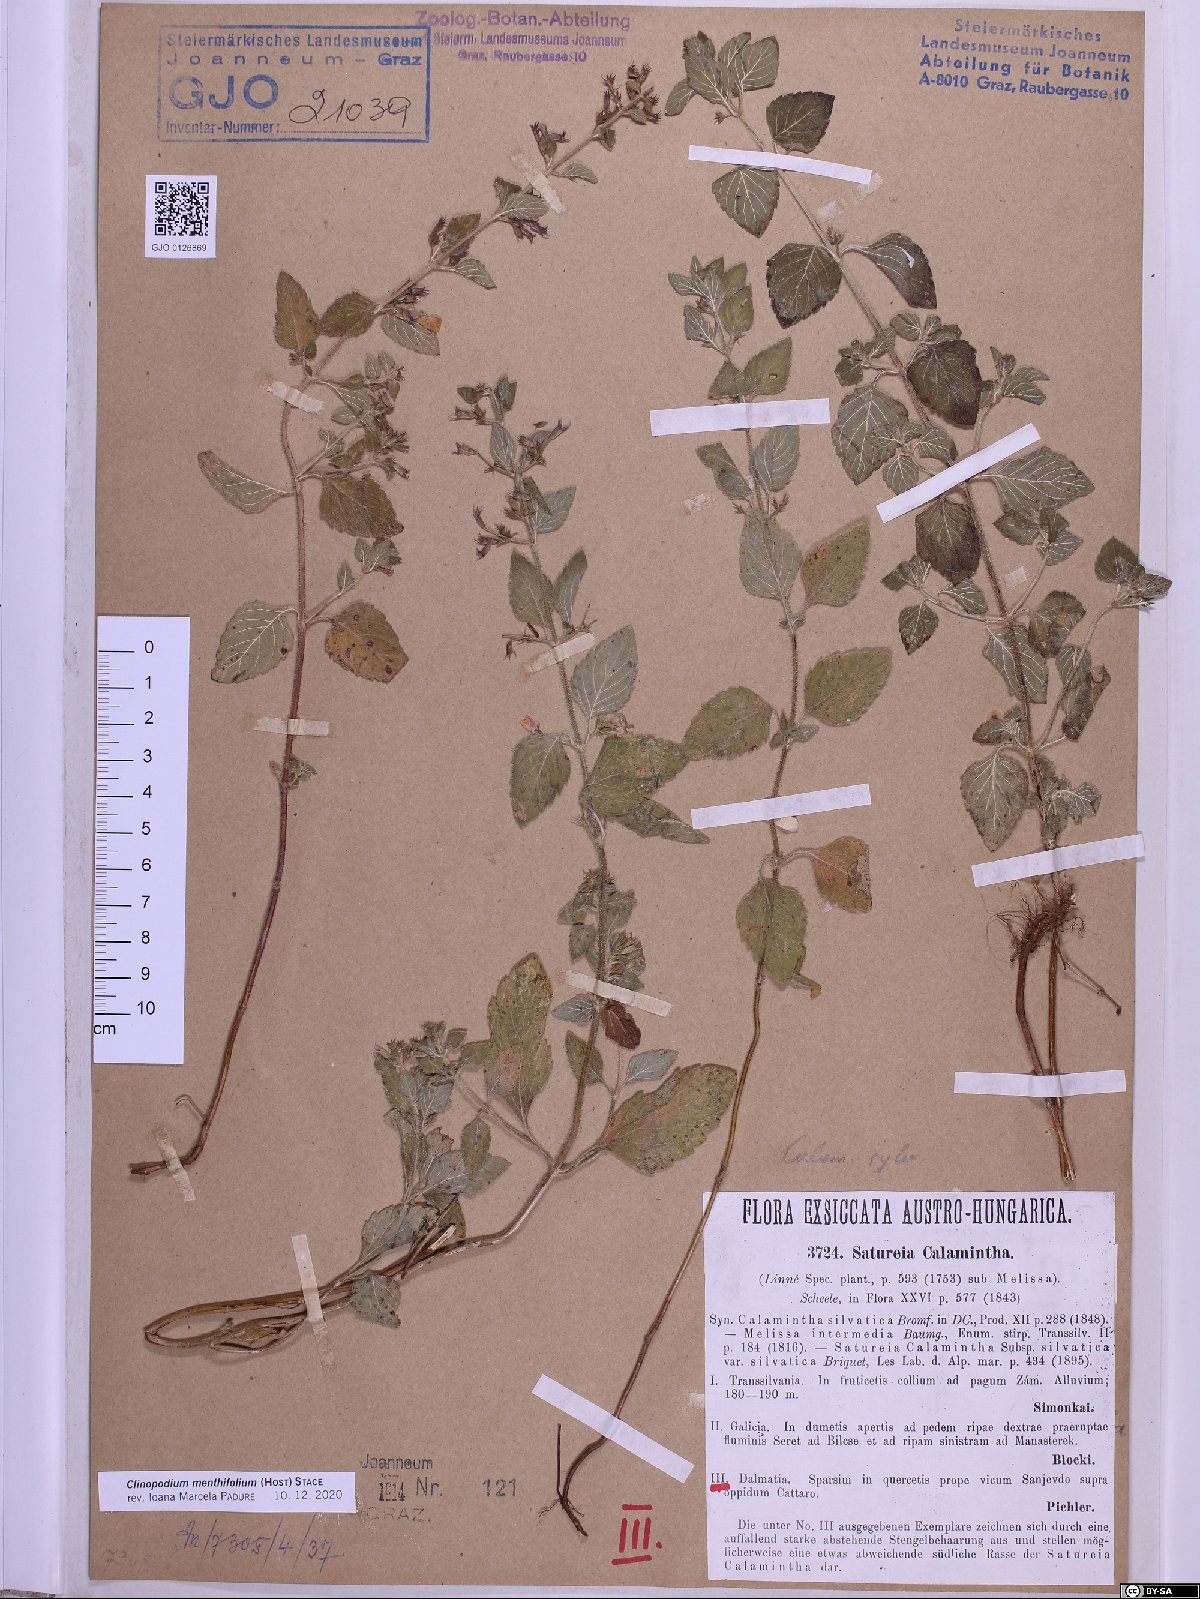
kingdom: Plantae
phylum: Tracheophyta
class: Magnoliopsida
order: Lamiales
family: Lamiaceae
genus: Clinopodium
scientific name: Clinopodium menthifolium
